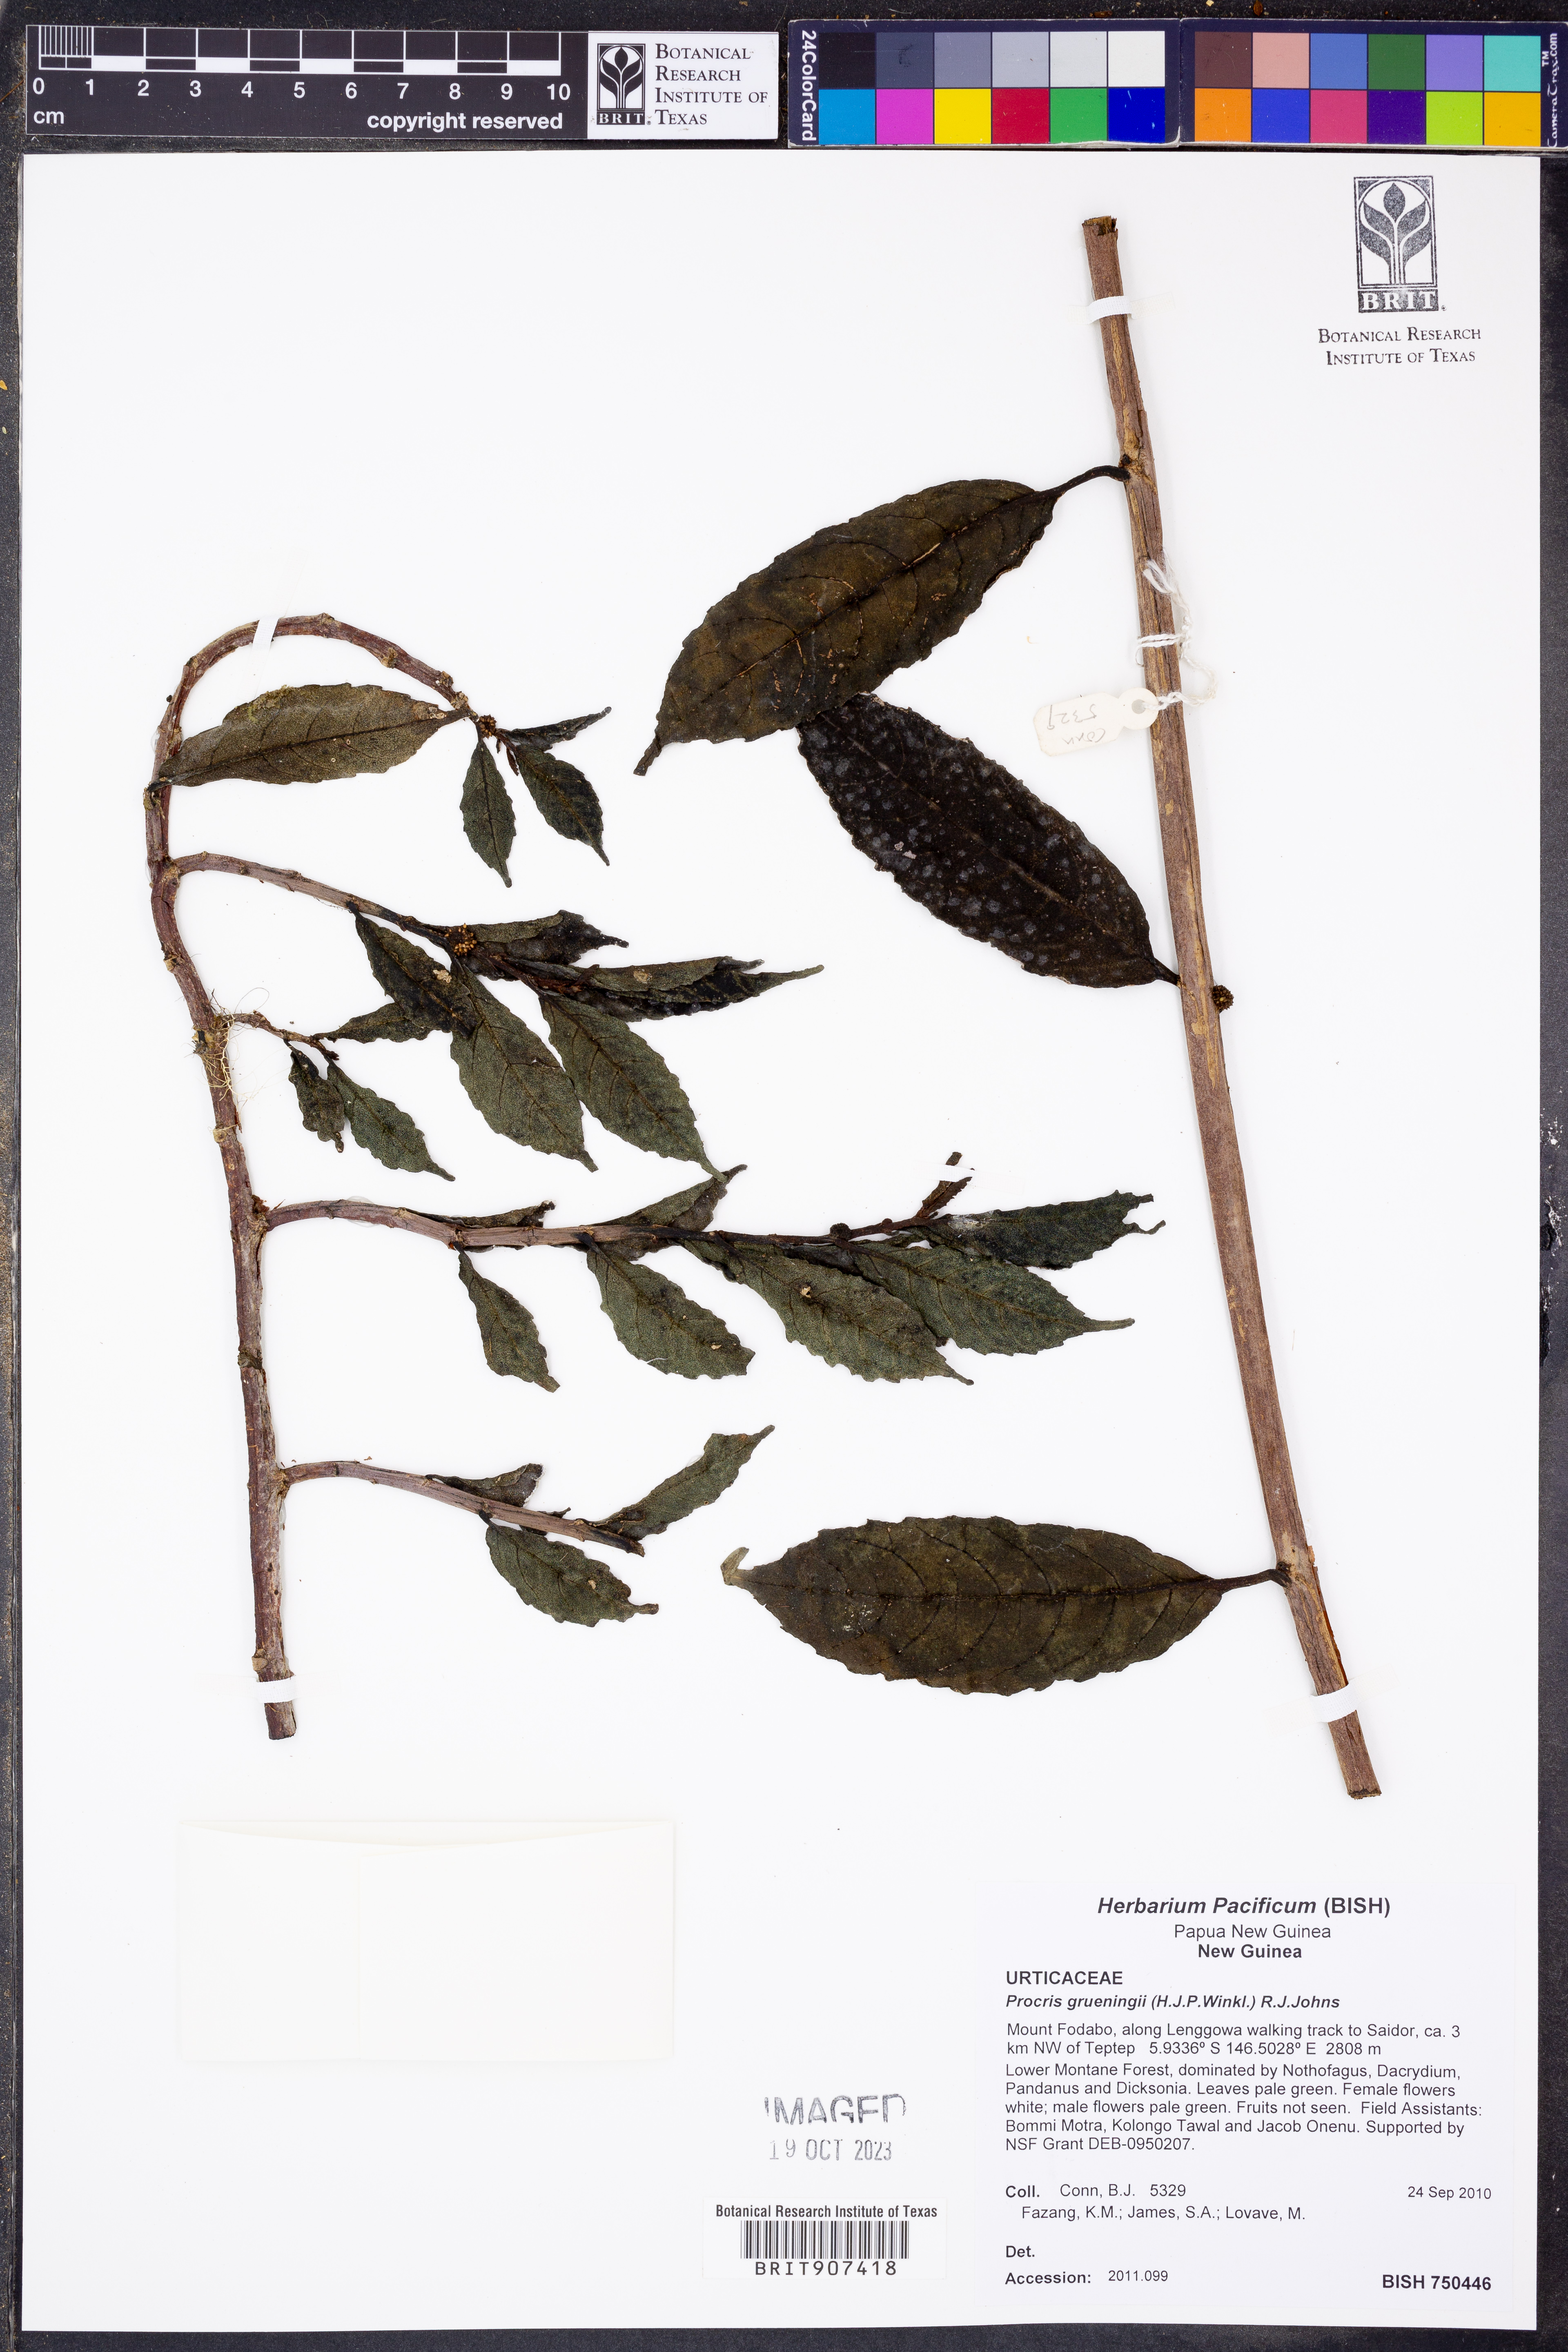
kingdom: Plantae
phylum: Tracheophyta
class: Magnoliopsida
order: Rosales
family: Urticaceae
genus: Procris
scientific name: Procris grueningii
